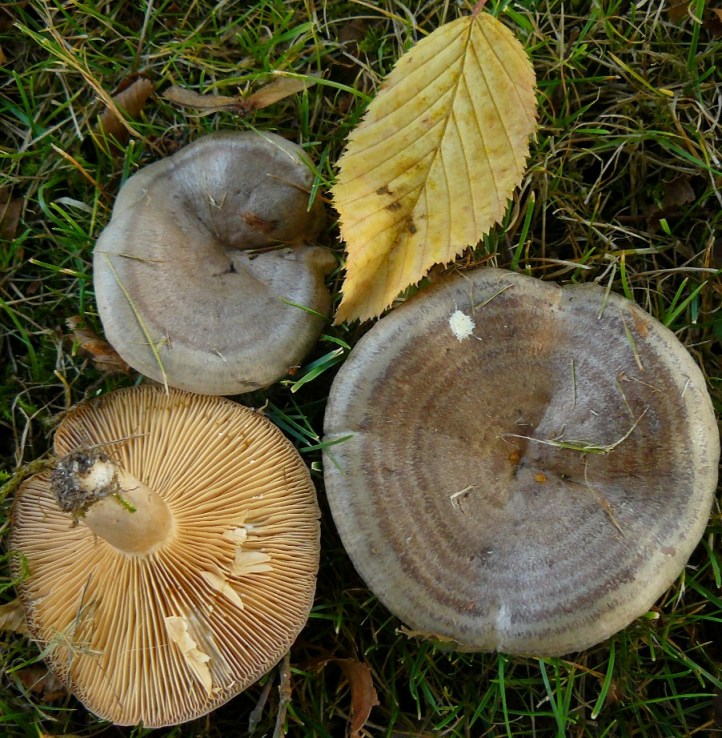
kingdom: Fungi
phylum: Basidiomycota
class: Agaricomycetes
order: Russulales
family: Russulaceae
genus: Lactarius
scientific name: Lactarius circellatus
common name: avnbøg-mælkehat
